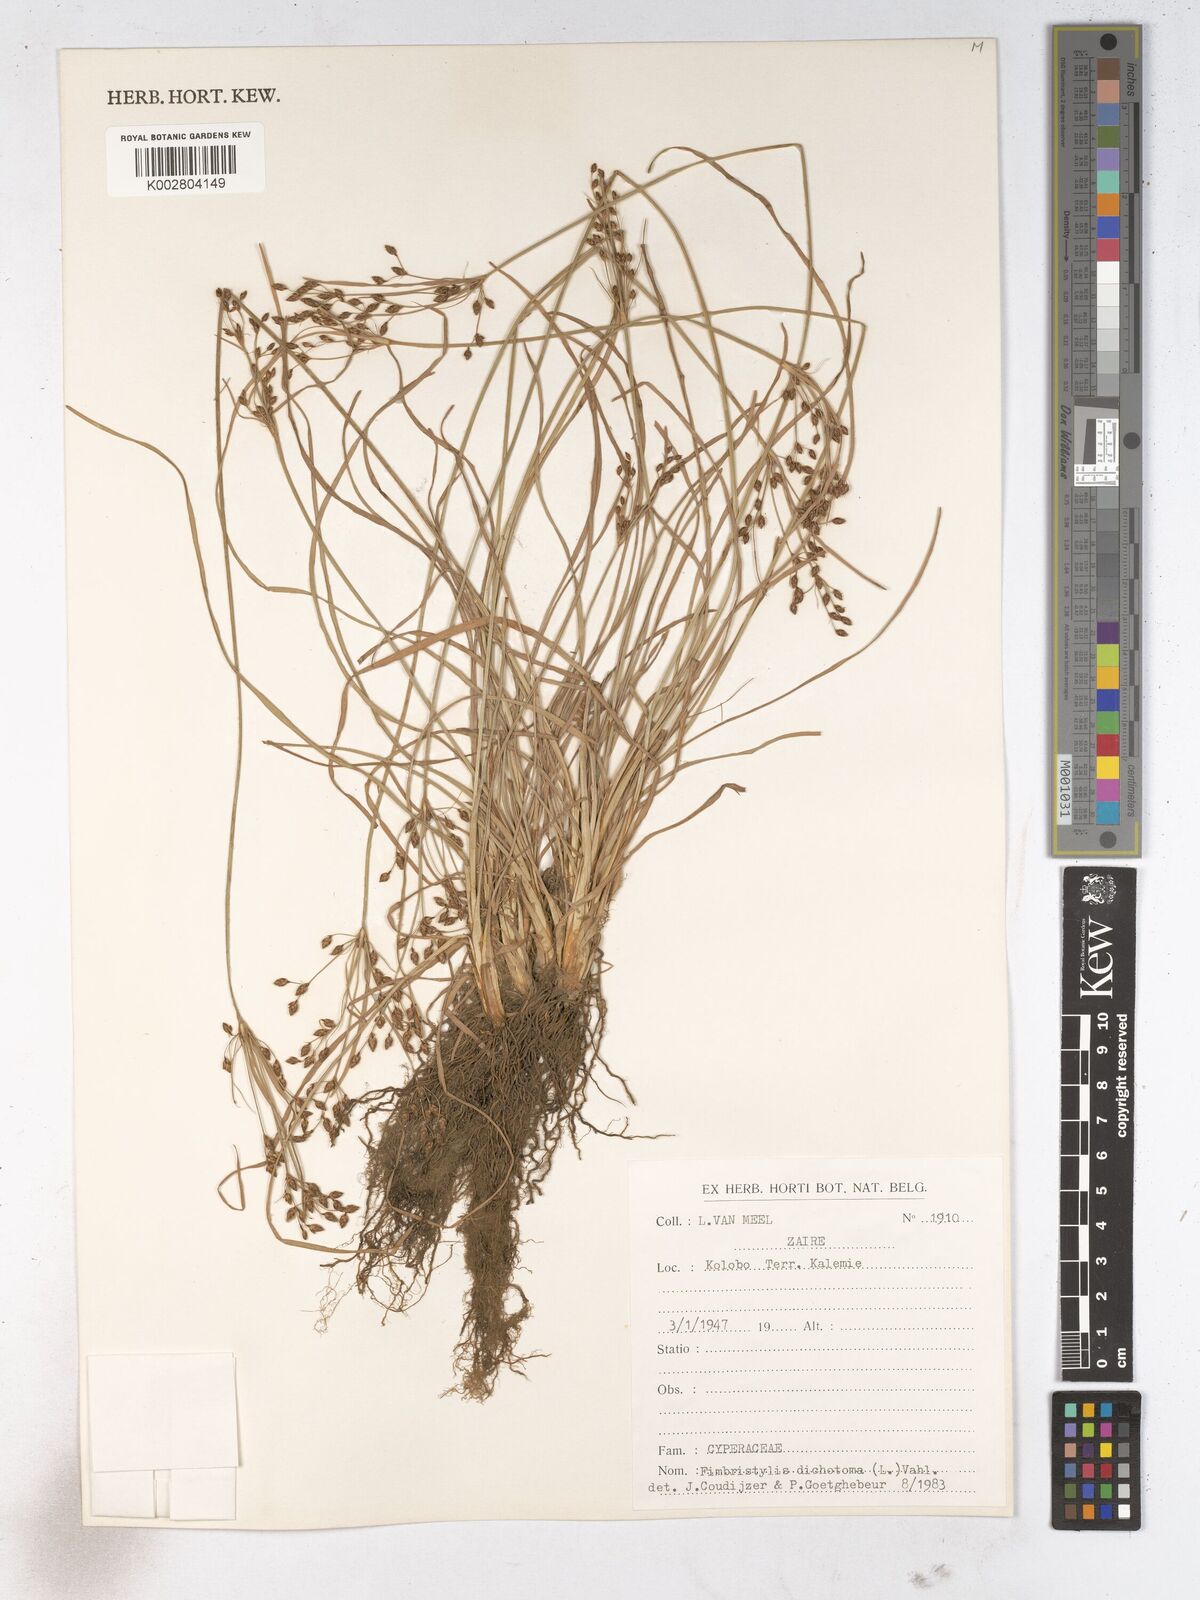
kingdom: Plantae
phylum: Tracheophyta
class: Liliopsida
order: Poales
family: Cyperaceae
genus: Fimbristylis
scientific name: Fimbristylis dichotoma
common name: Forked fimbry
